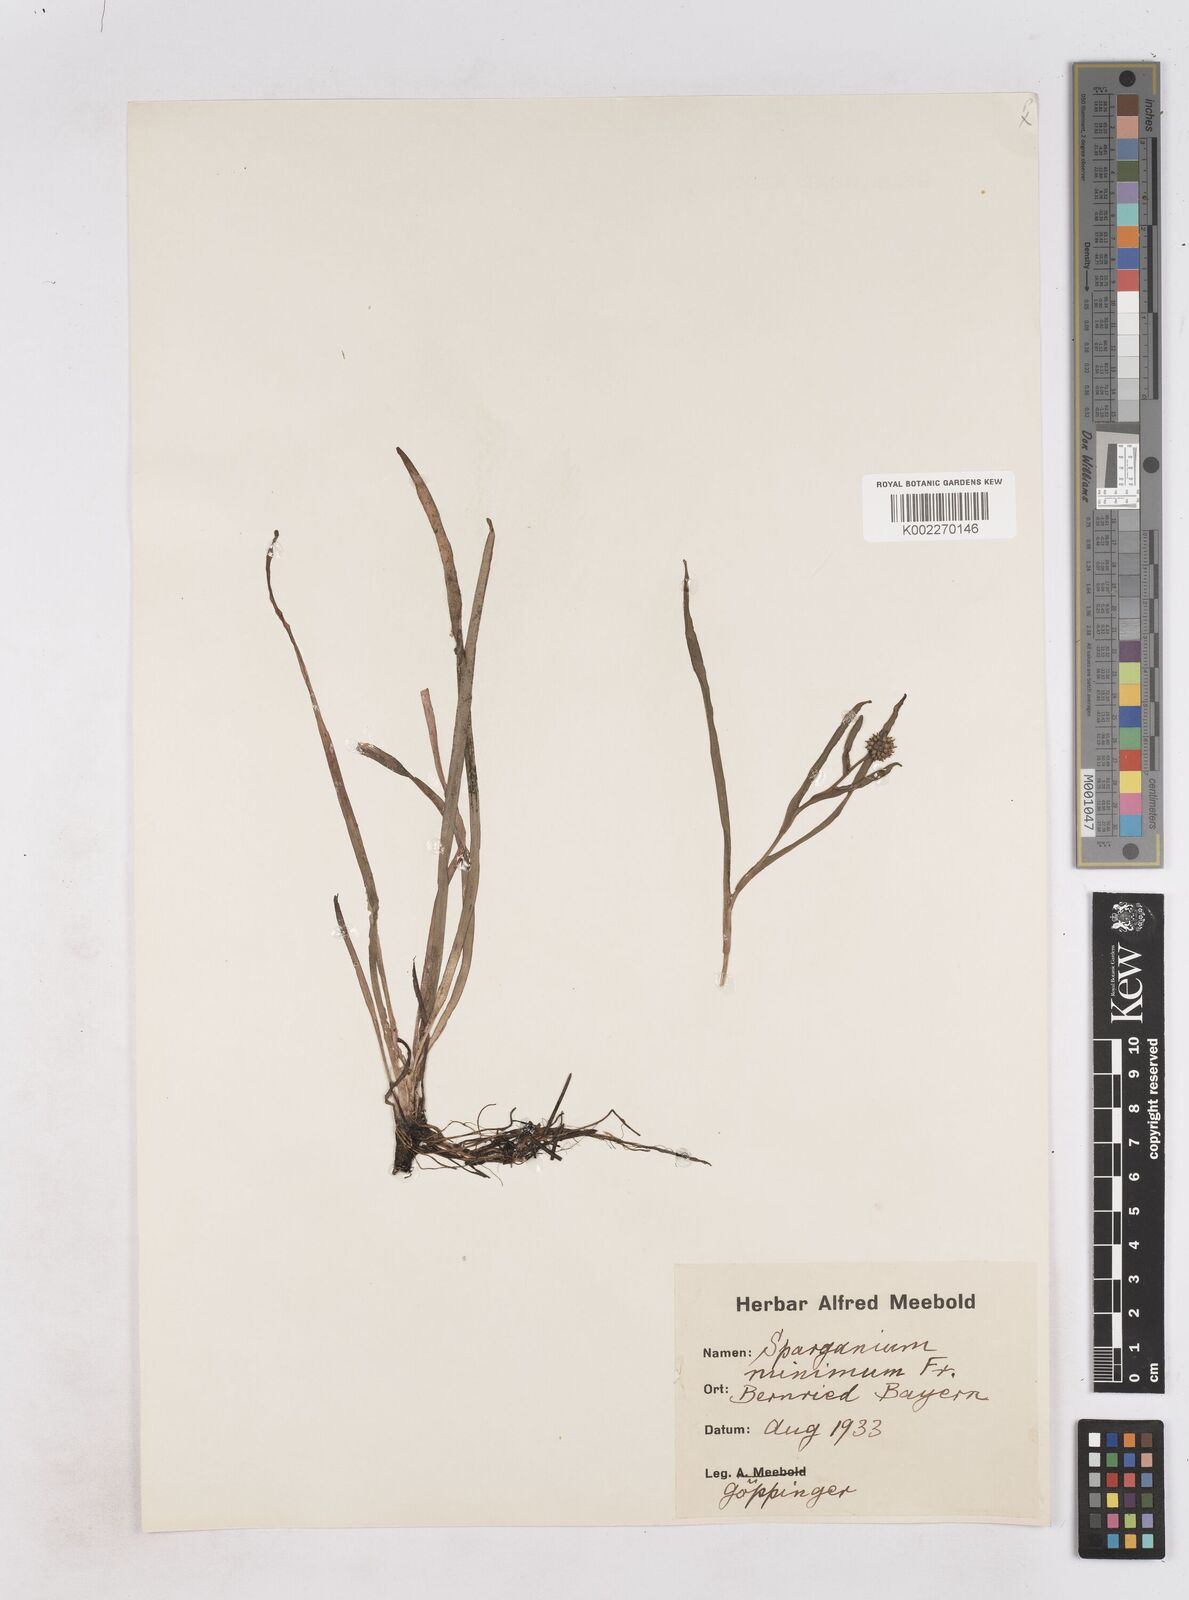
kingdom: Plantae
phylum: Tracheophyta
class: Liliopsida
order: Poales
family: Typhaceae
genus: Sparganium
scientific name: Sparganium natans
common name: Least bur-reed
